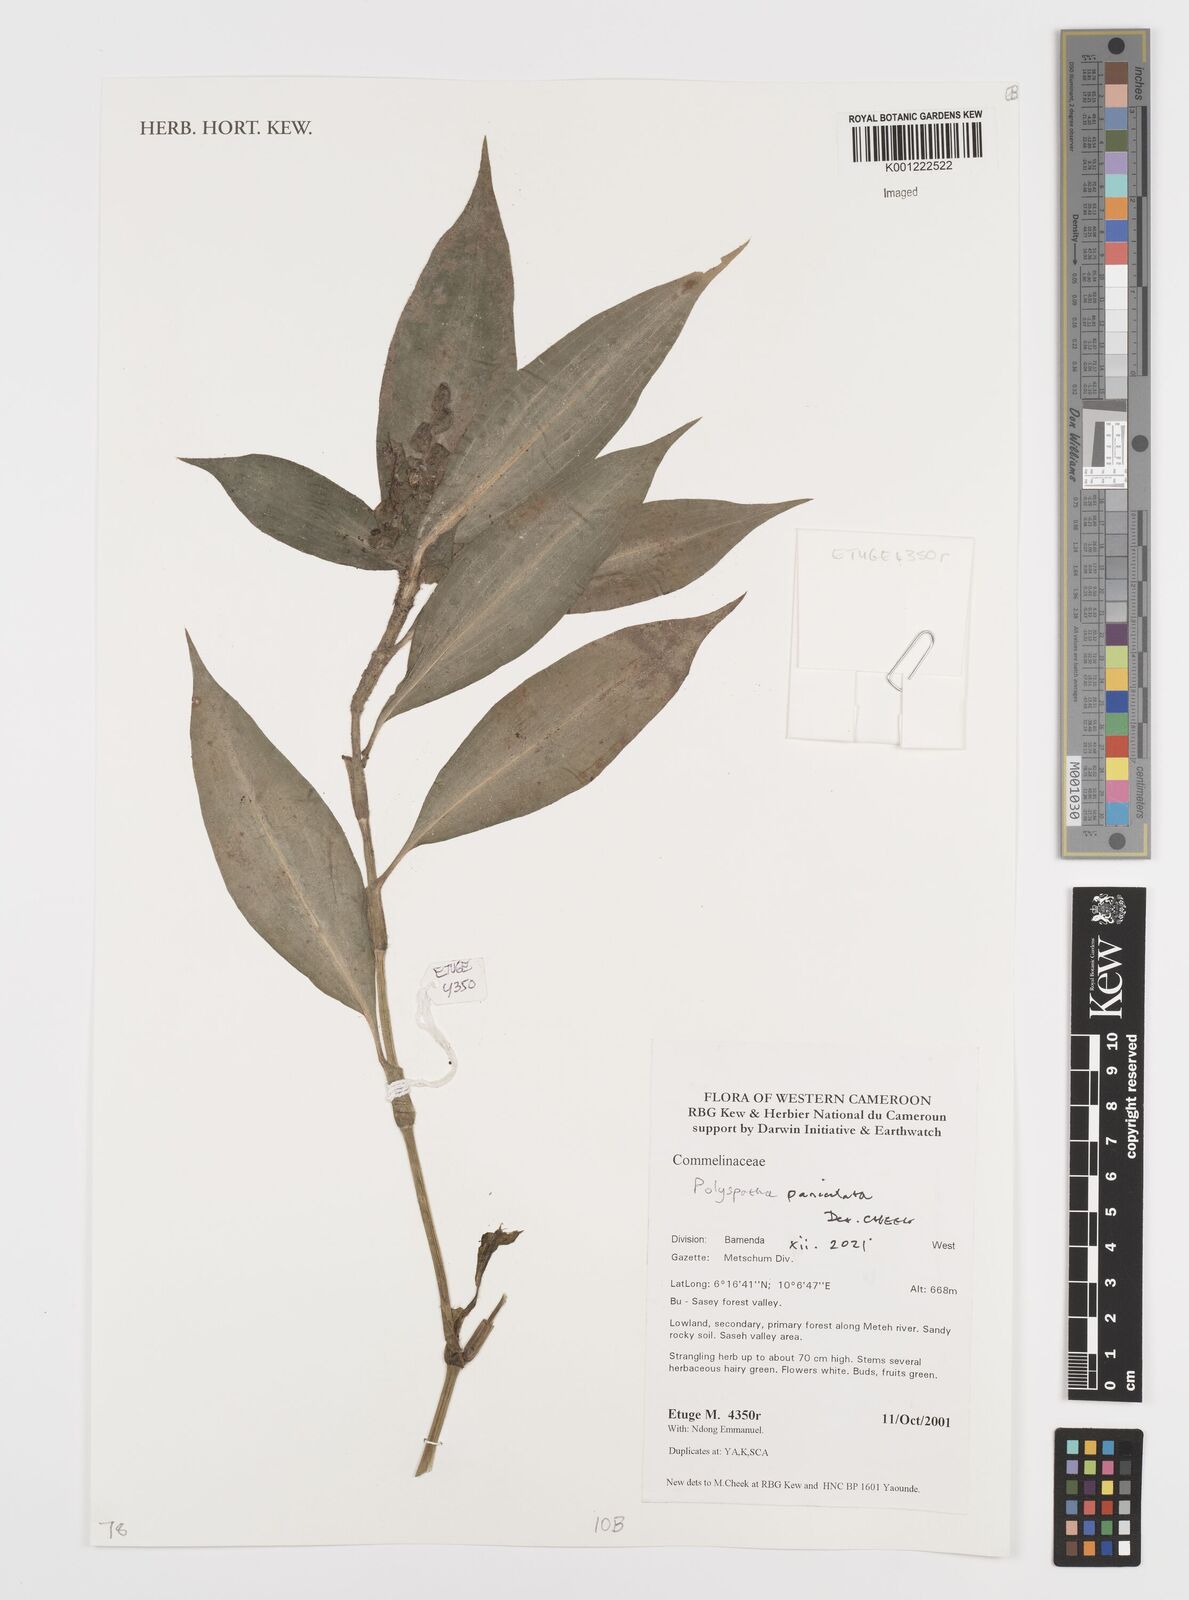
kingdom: Plantae
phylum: Tracheophyta
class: Liliopsida
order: Commelinales
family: Commelinaceae
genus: Polyspatha
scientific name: Polyspatha paniculata
